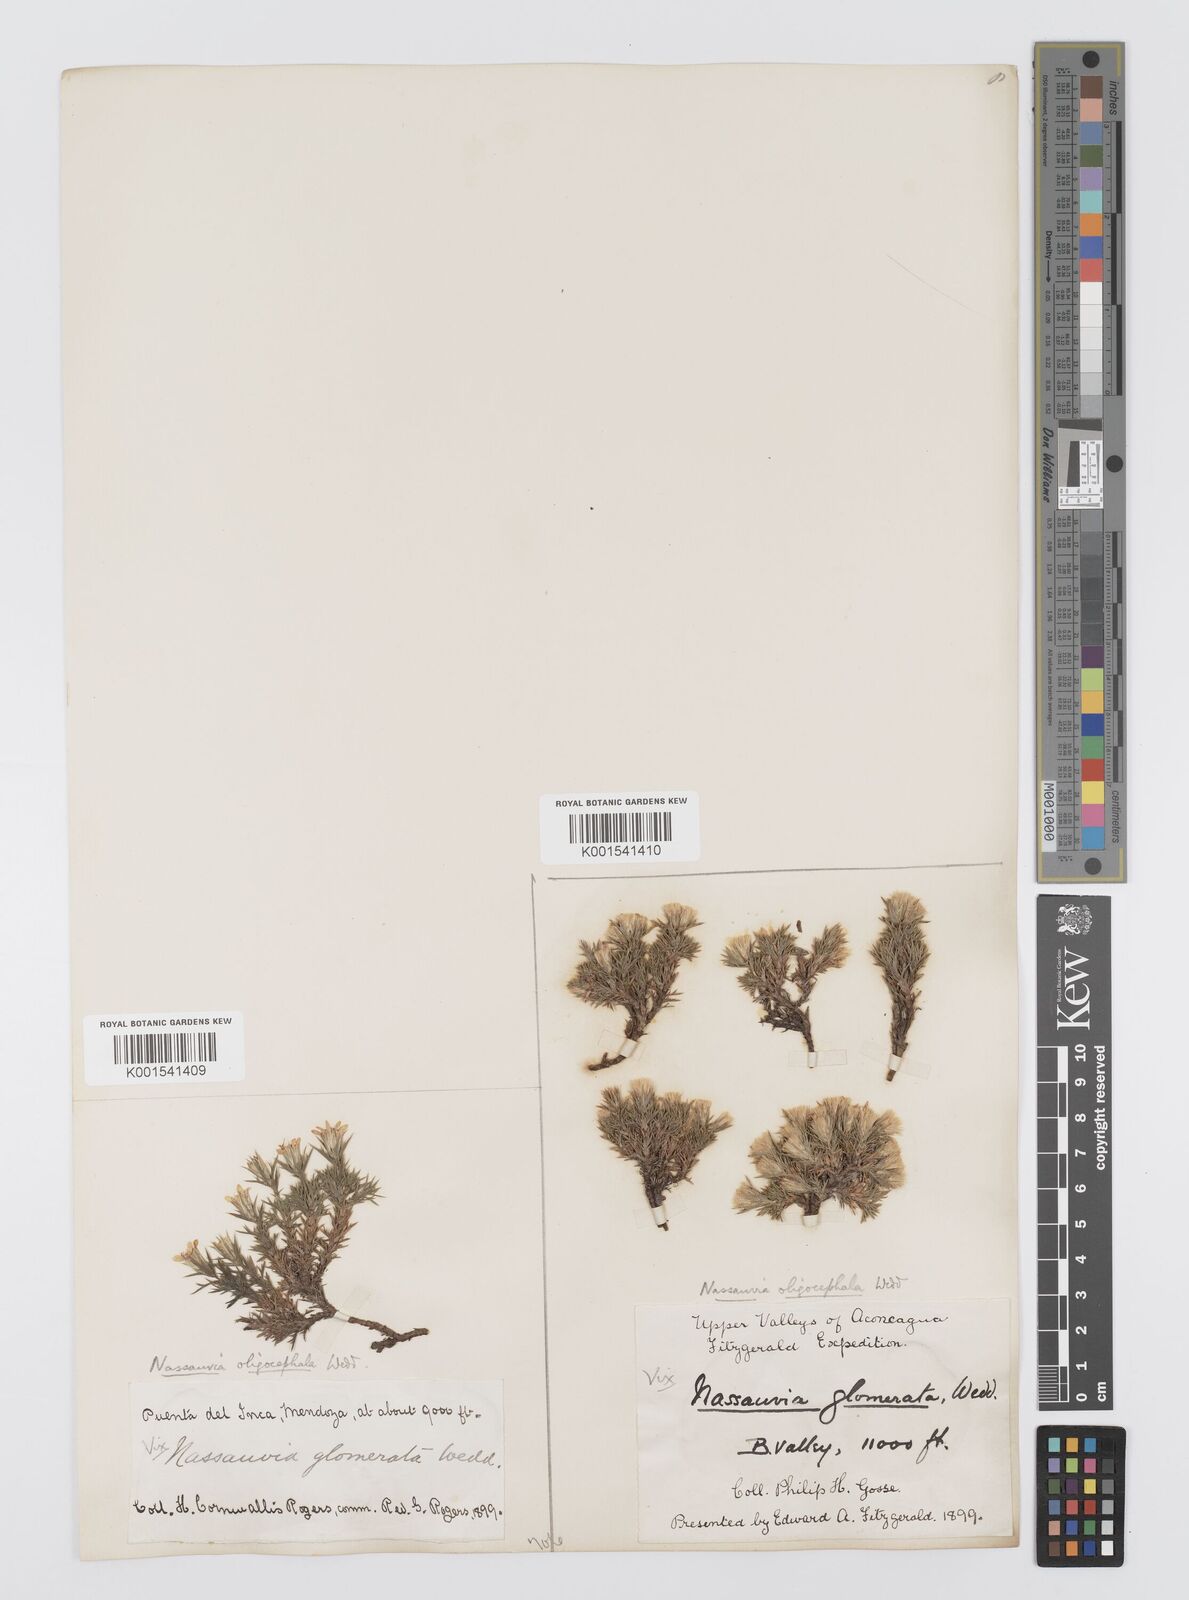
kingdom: Plantae
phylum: Tracheophyta
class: Magnoliopsida
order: Asterales
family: Asteraceae
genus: Nassauvia
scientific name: Nassauvia uniflora
